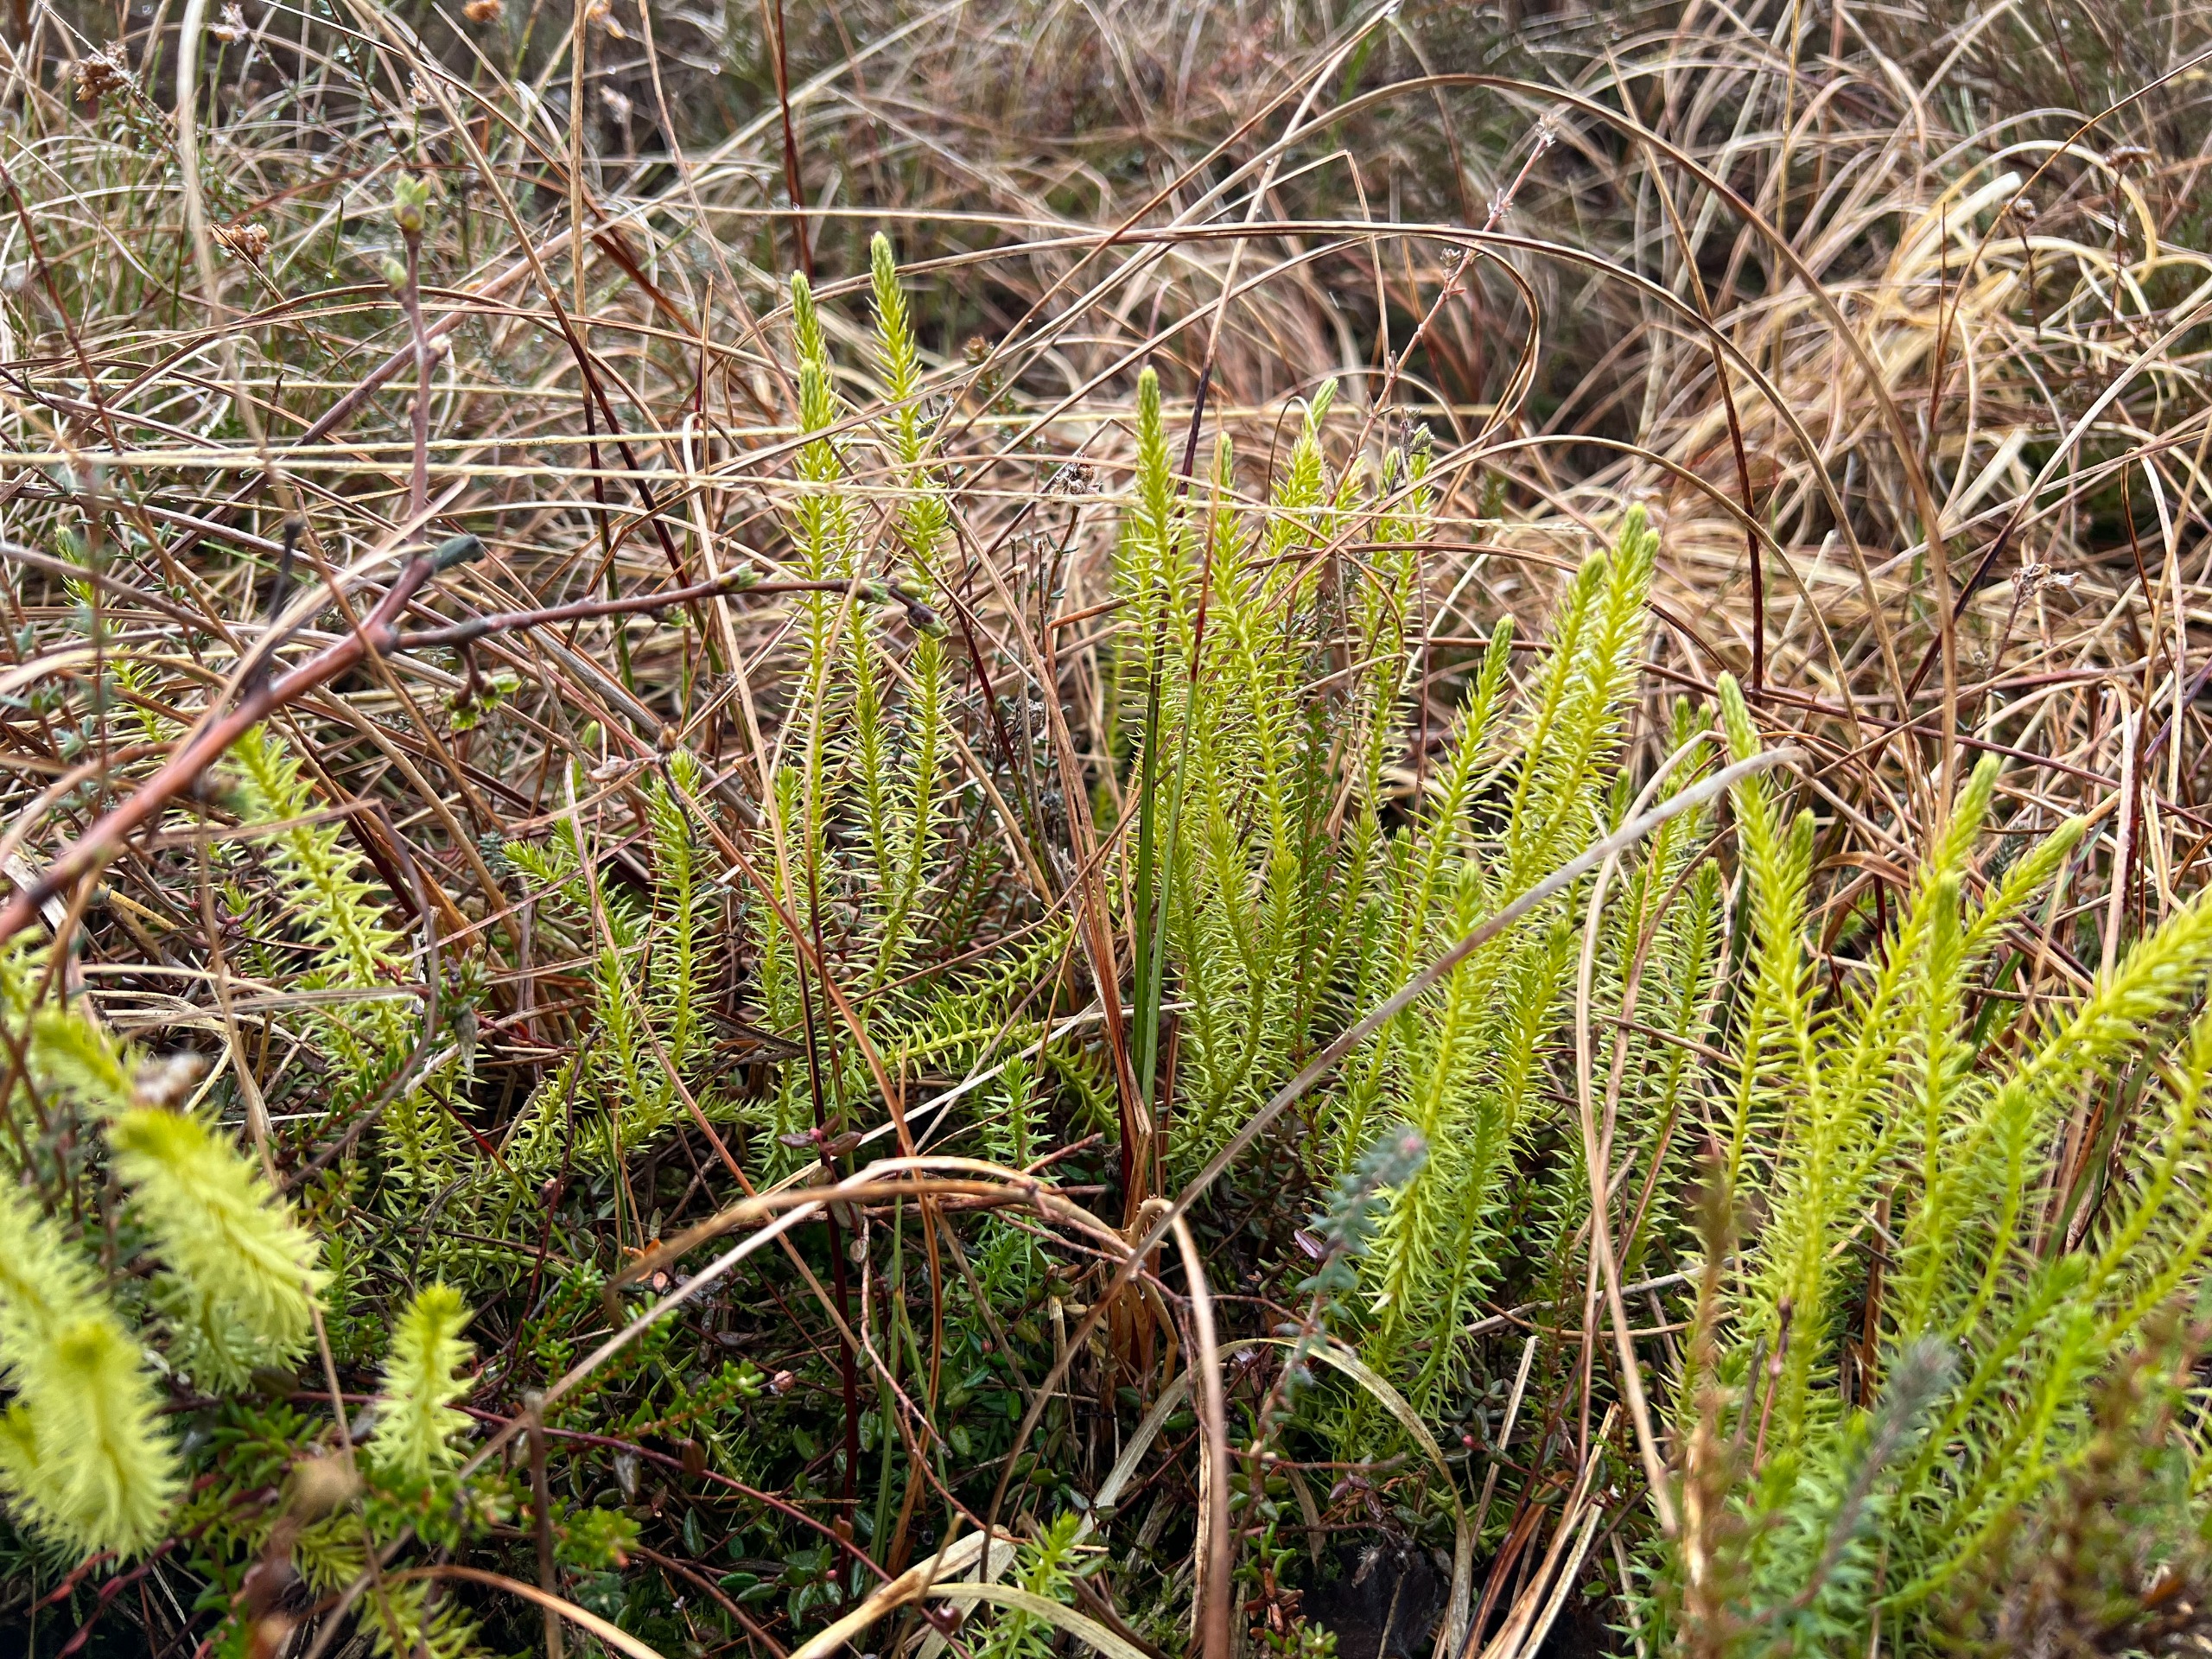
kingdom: Plantae
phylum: Tracheophyta
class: Lycopodiopsida
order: Lycopodiales
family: Lycopodiaceae
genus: Spinulum
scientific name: Spinulum annotinum
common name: Femradet ulvefod
